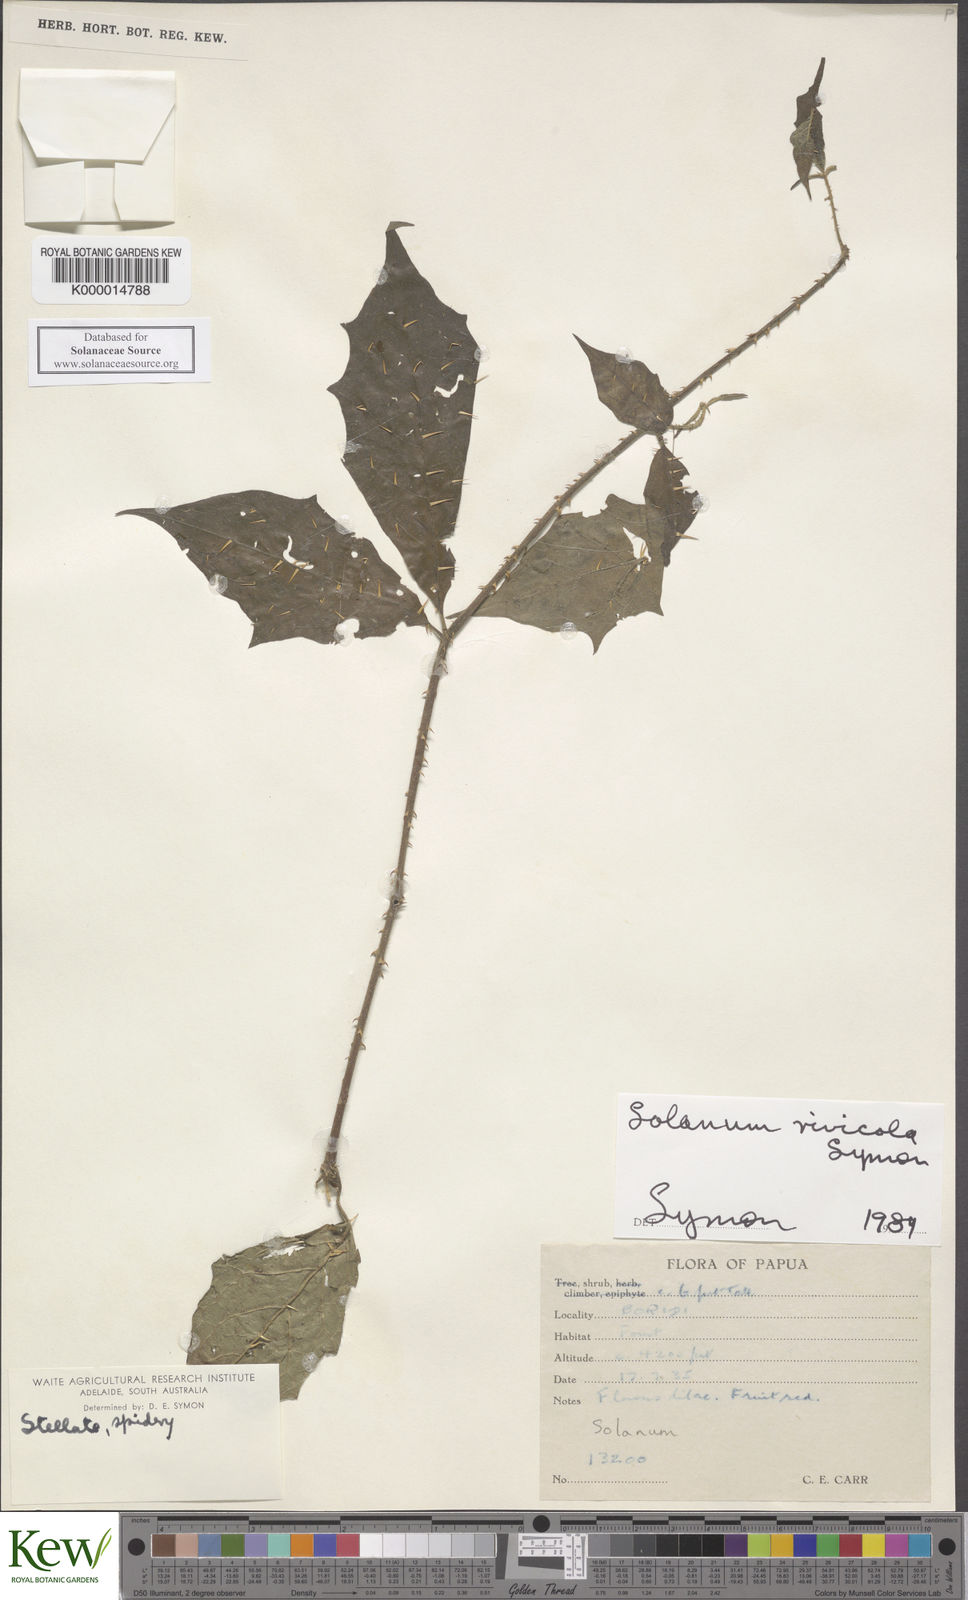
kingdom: Plantae
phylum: Tracheophyta
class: Magnoliopsida
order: Solanales
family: Solanaceae
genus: Solanum
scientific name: Solanum rivicola
